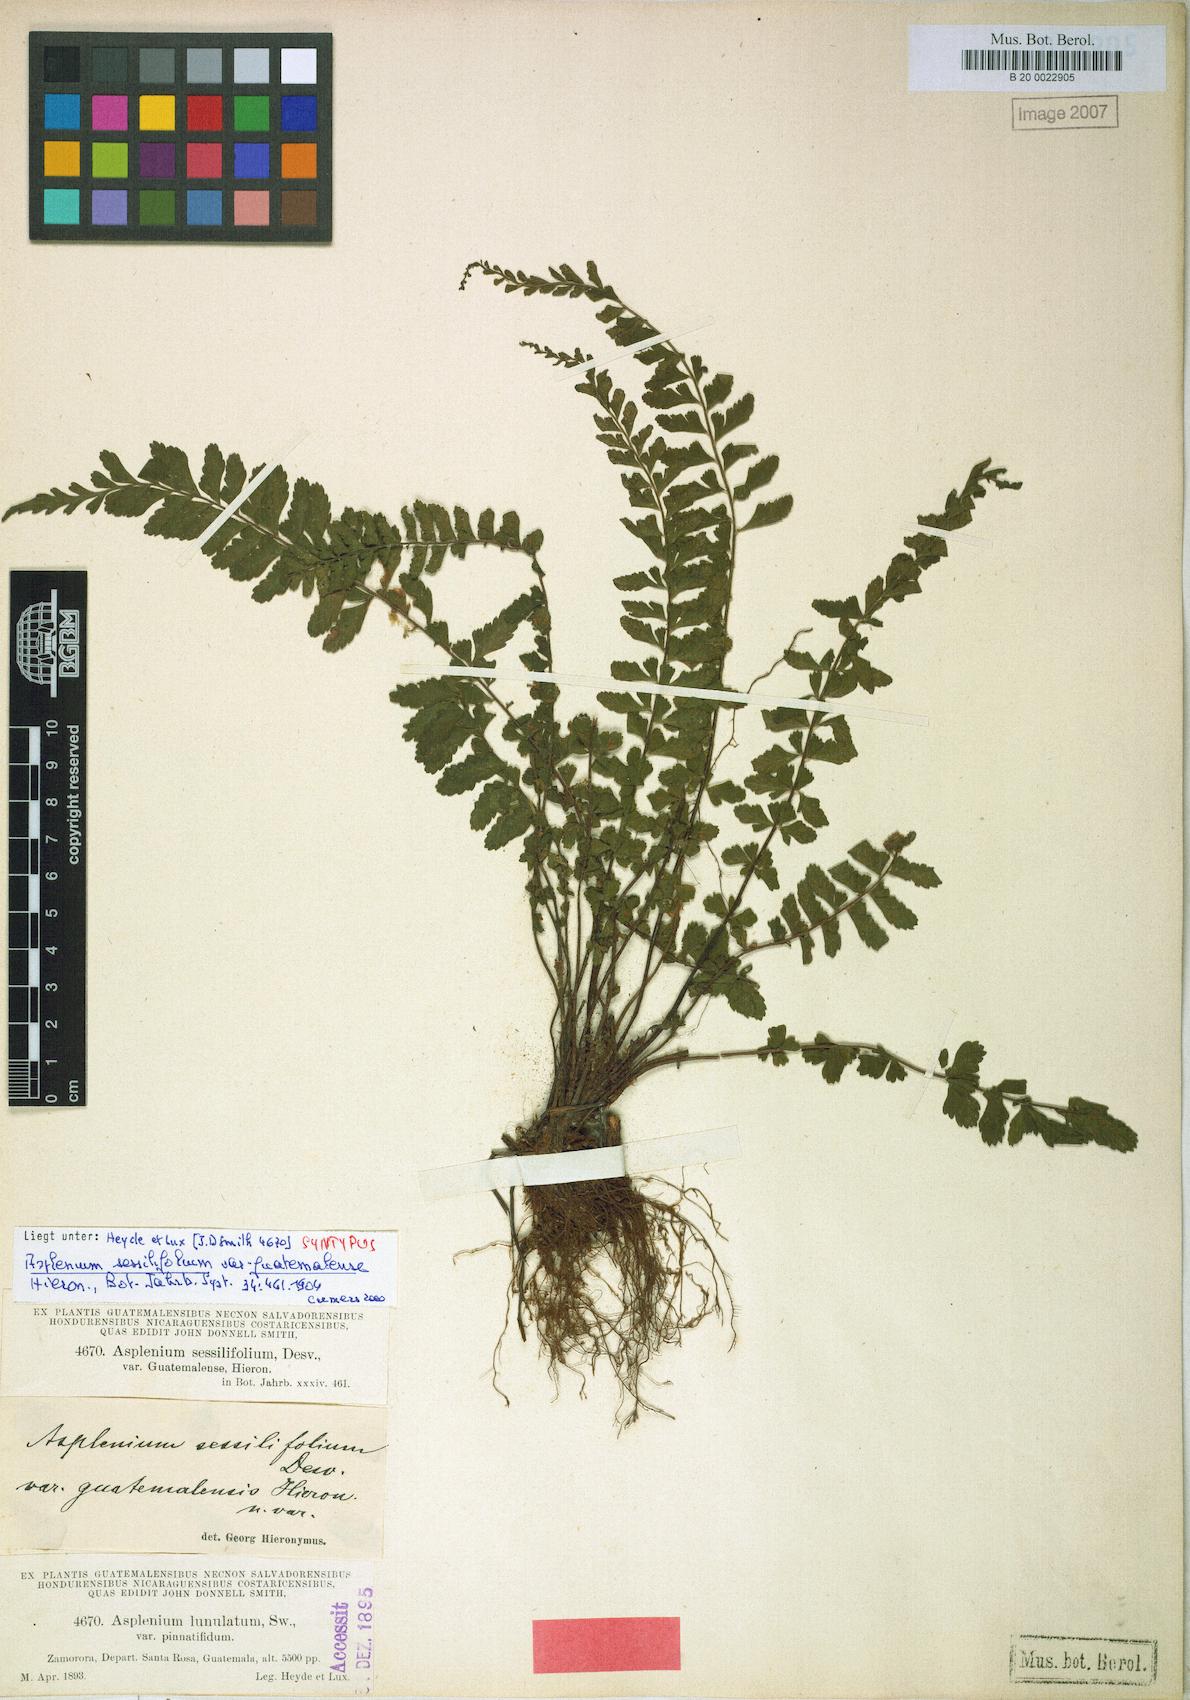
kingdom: Plantae
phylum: Tracheophyta
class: Polypodiopsida
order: Polypodiales
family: Aspleniaceae
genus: Asplenium
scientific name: Asplenium sessilifolium
